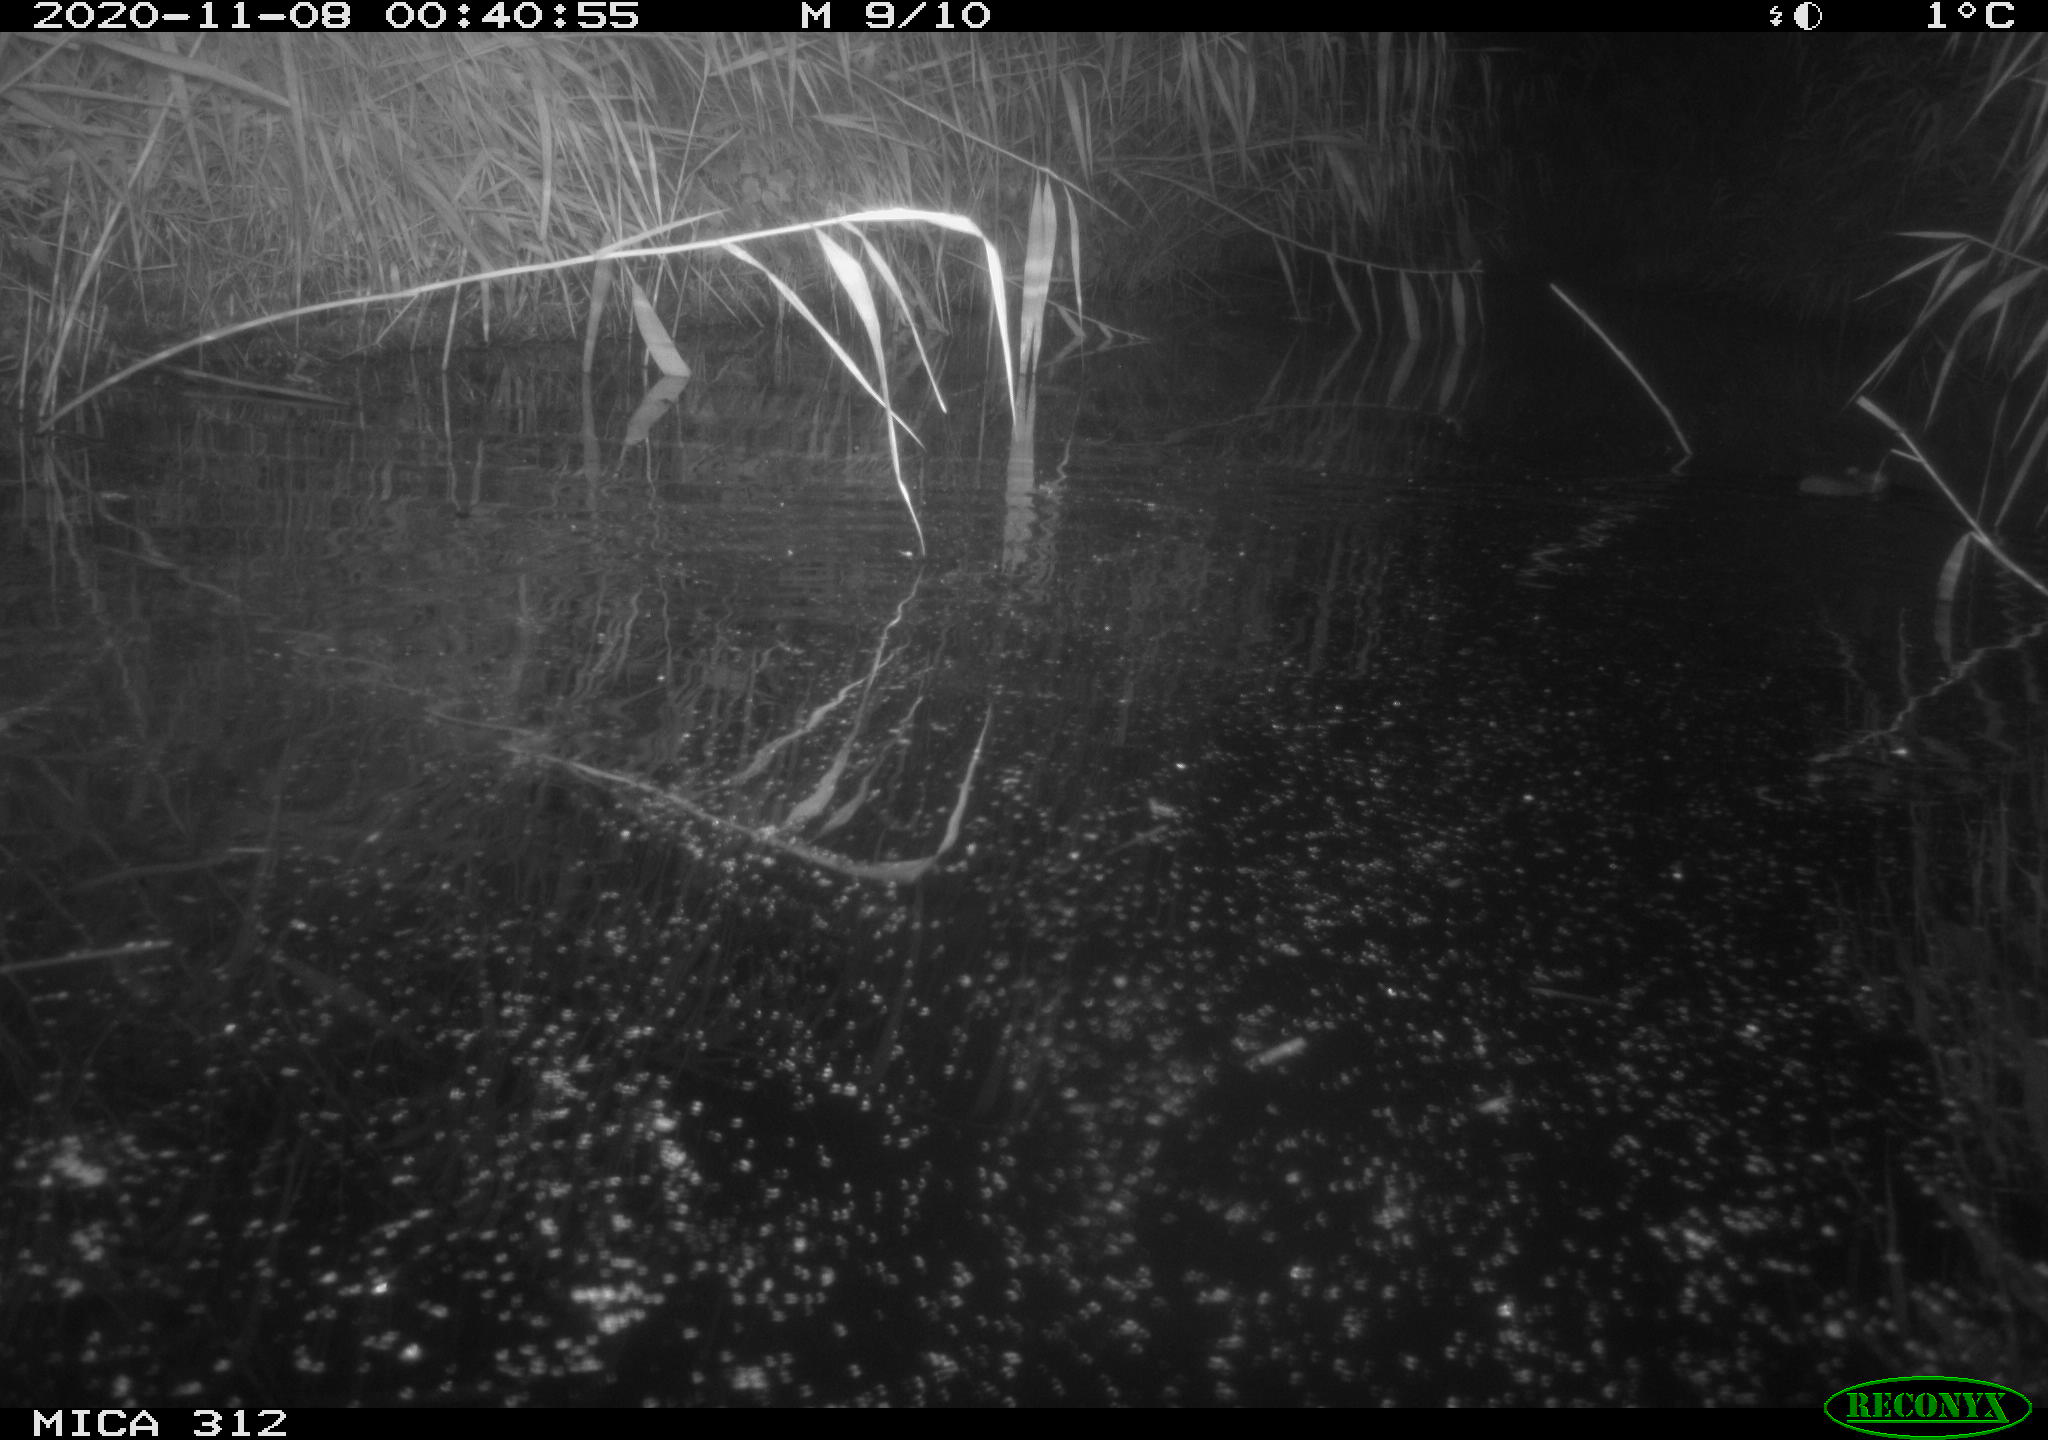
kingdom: Animalia
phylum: Chordata
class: Mammalia
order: Rodentia
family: Muridae
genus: Rattus
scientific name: Rattus norvegicus
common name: Brown rat
